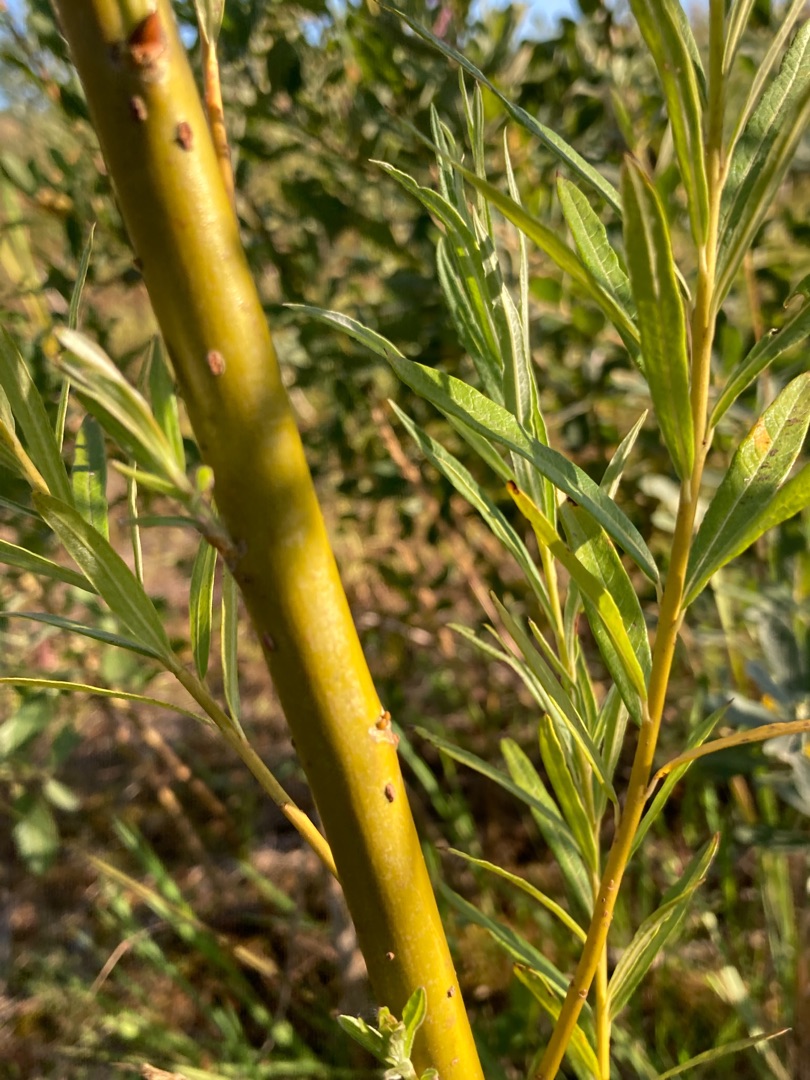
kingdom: Plantae
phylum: Tracheophyta
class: Magnoliopsida
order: Malpighiales
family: Salicaceae
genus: Salix
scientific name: Salix viminalis
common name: Bånd-pil
